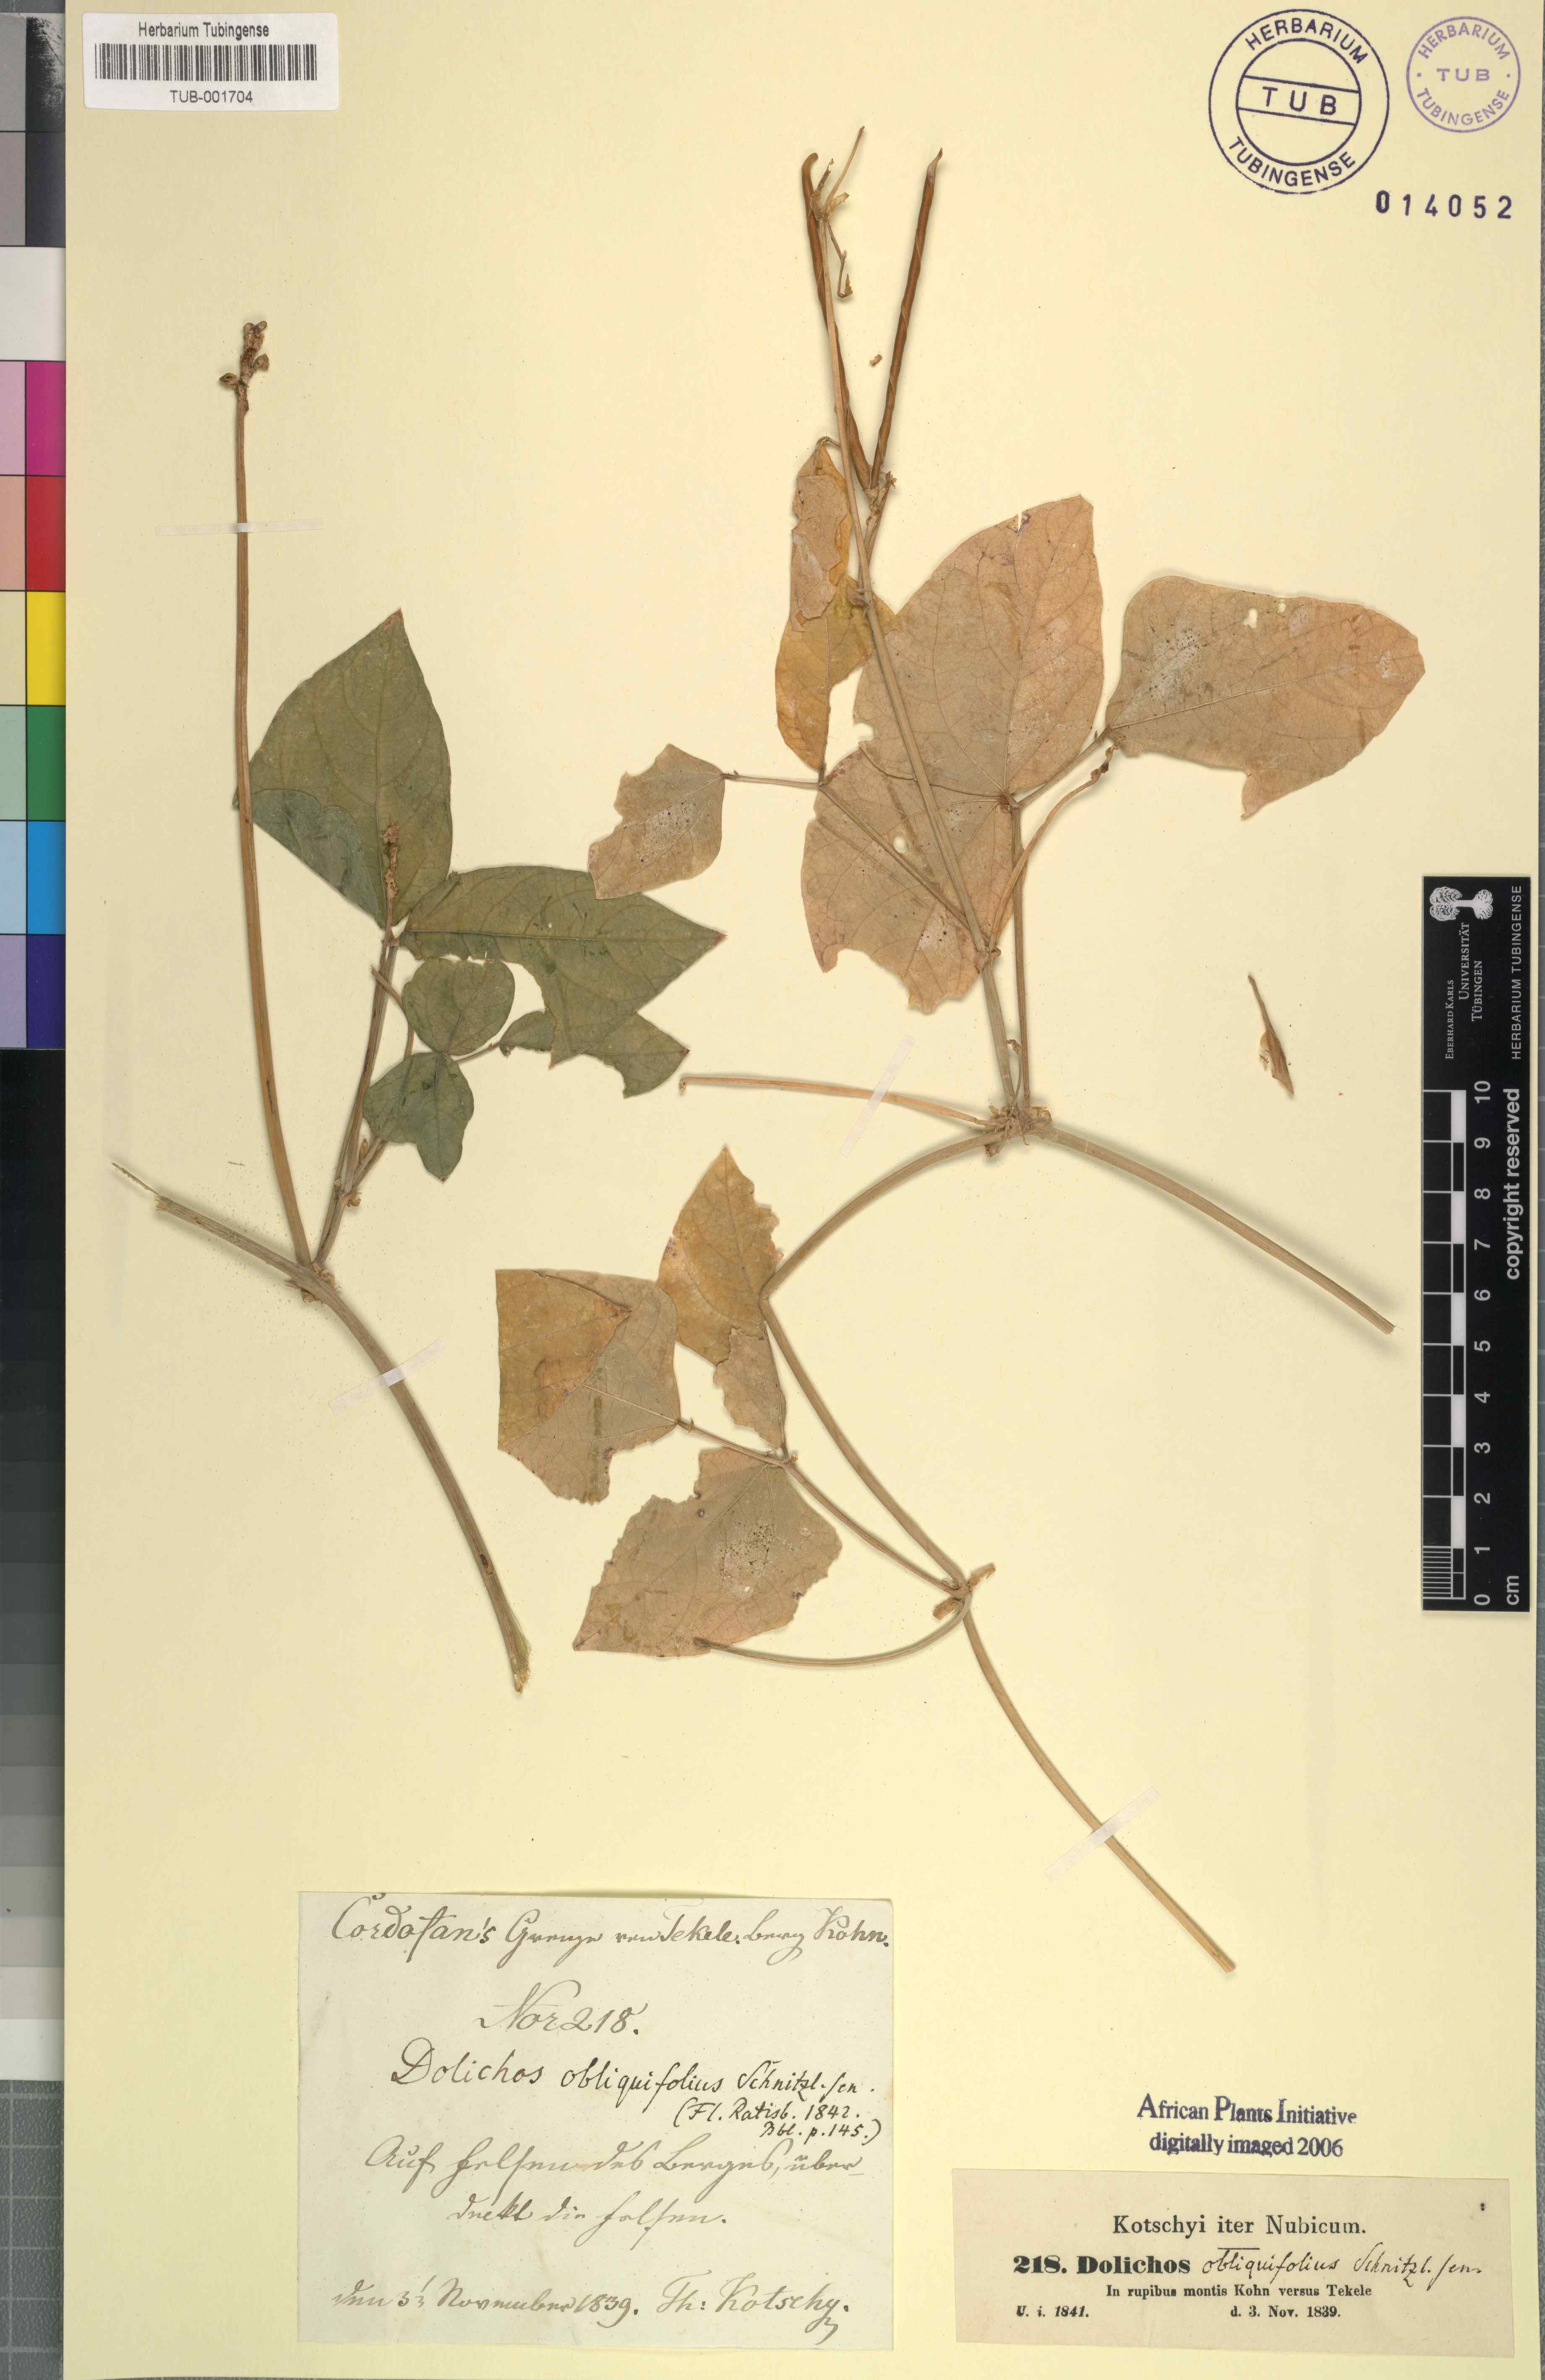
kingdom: Plantae
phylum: Tracheophyta
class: Magnoliopsida
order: Fabales
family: Fabaceae
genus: Vigna
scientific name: Vigna unguiculata
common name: Cowpea
